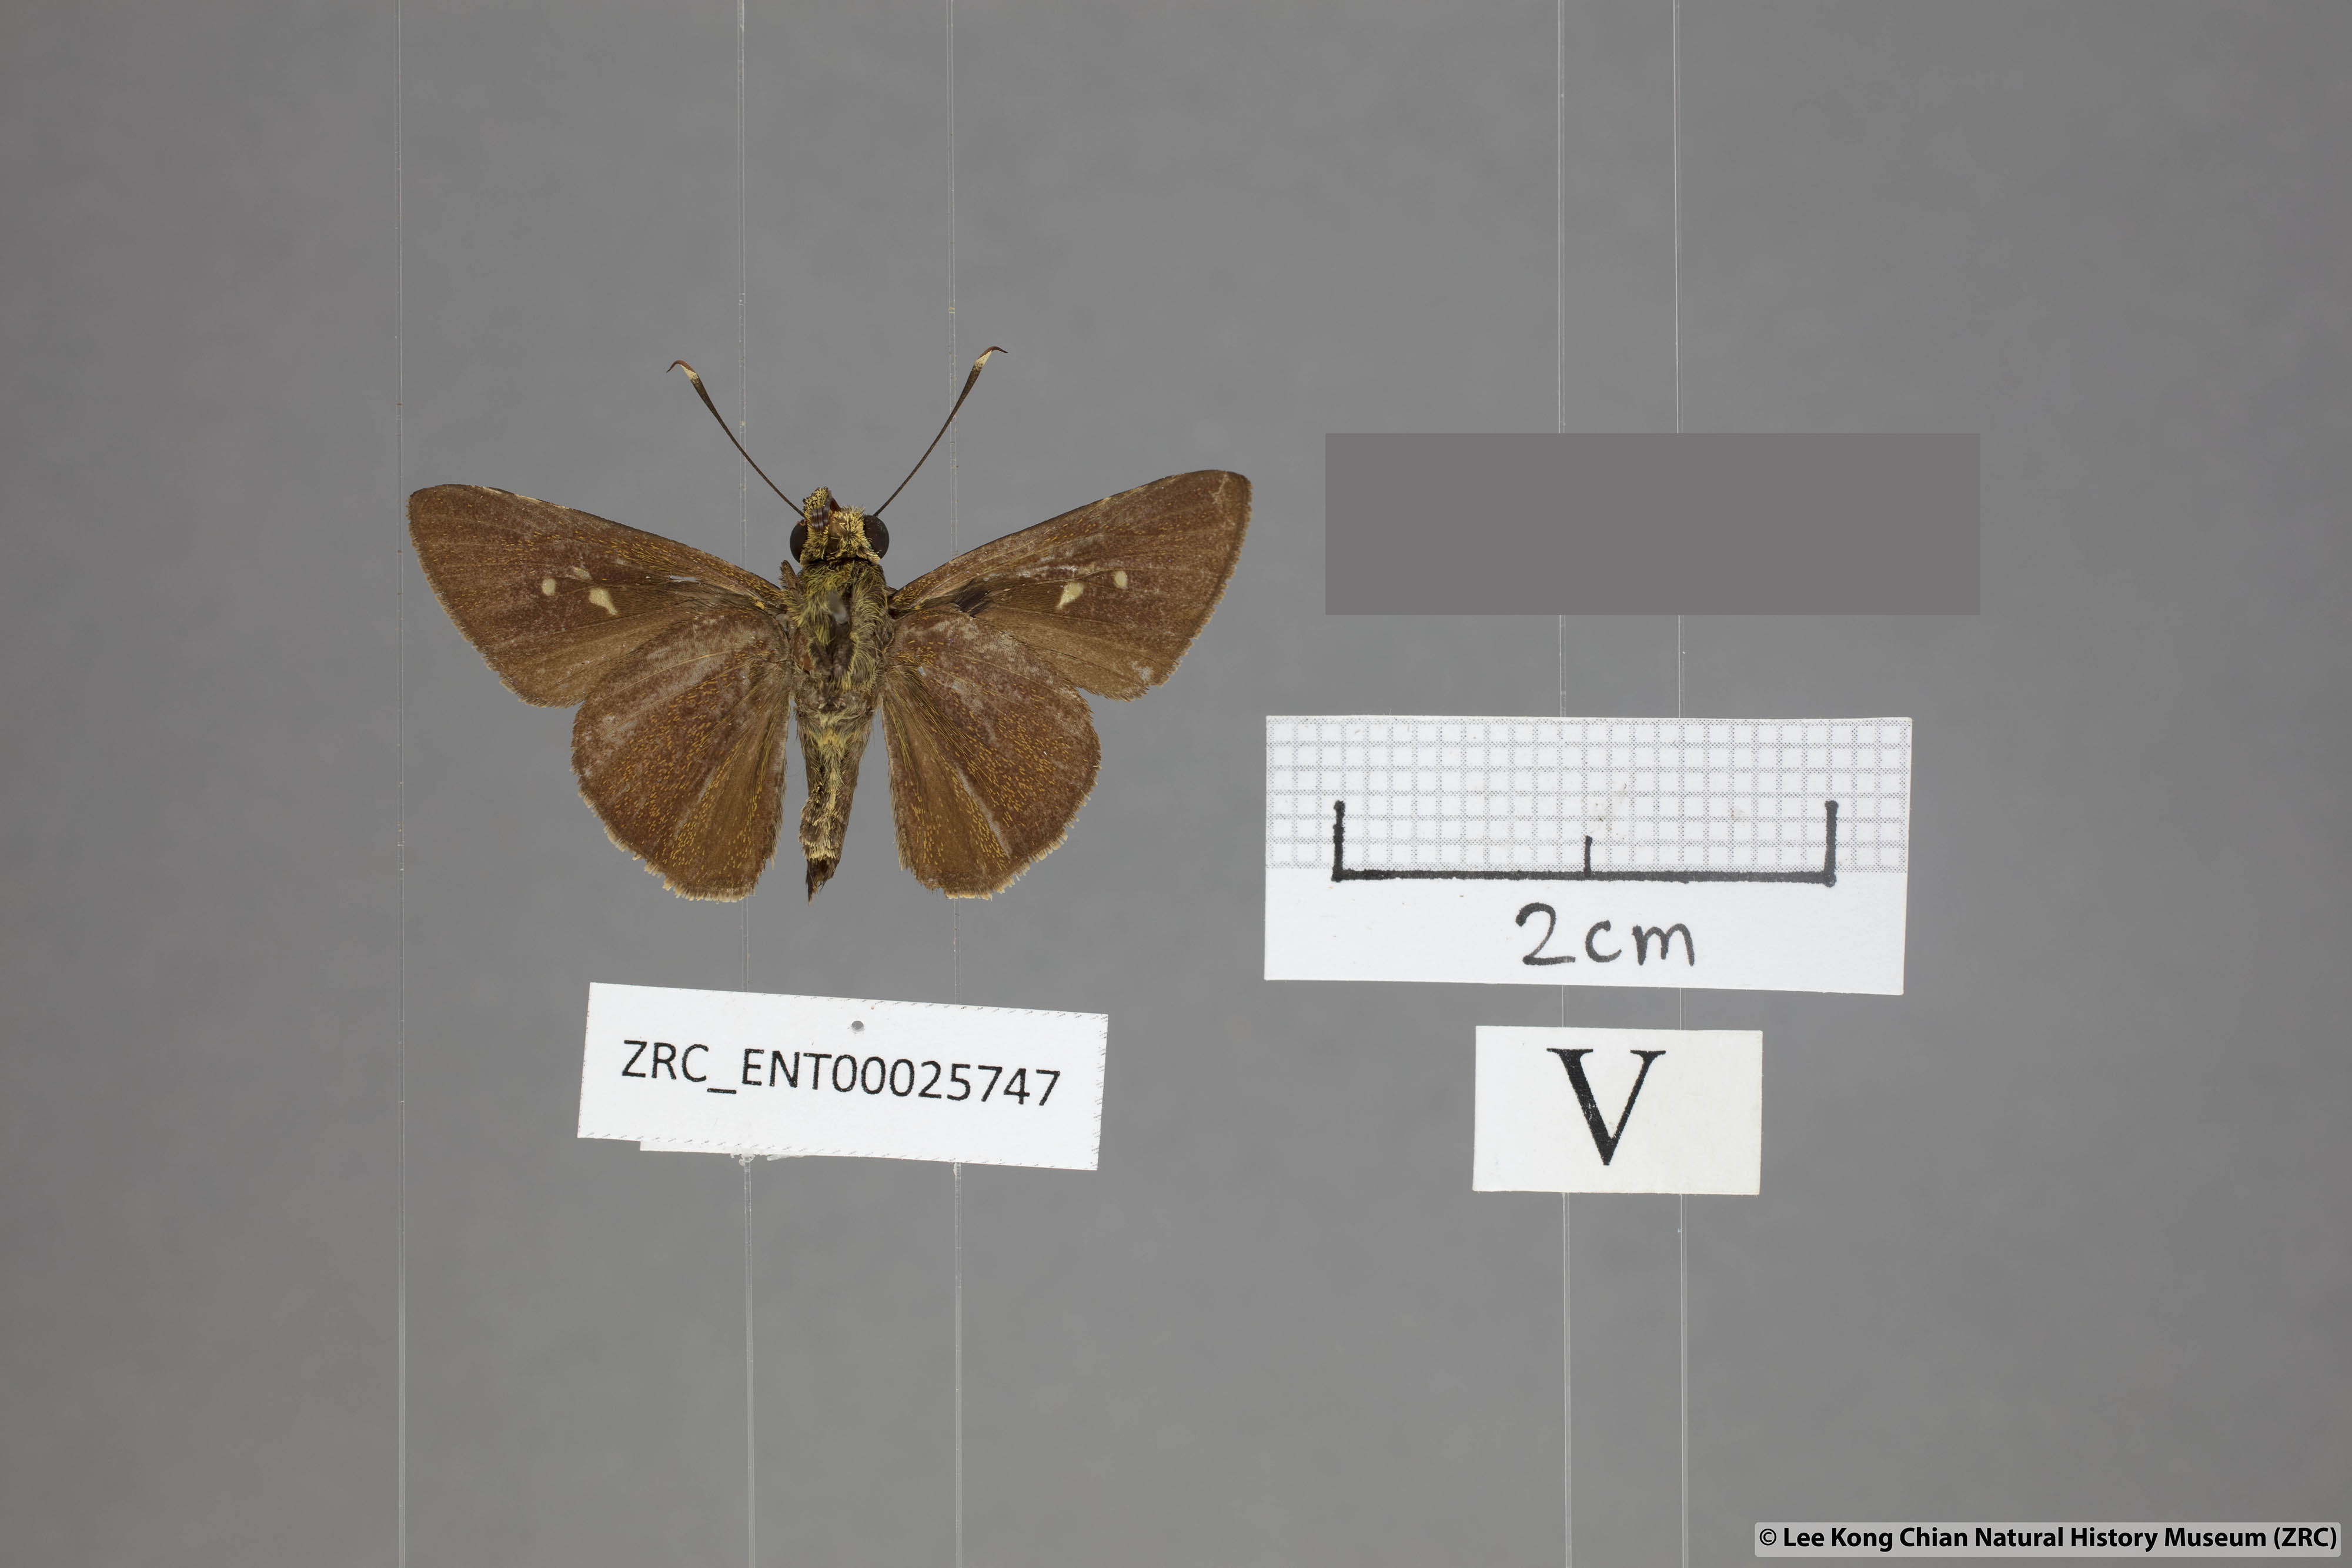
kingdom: Animalia
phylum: Arthropoda
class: Insecta
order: Lepidoptera
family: Hesperiidae
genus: Zographetus
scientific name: Zographetus rama
